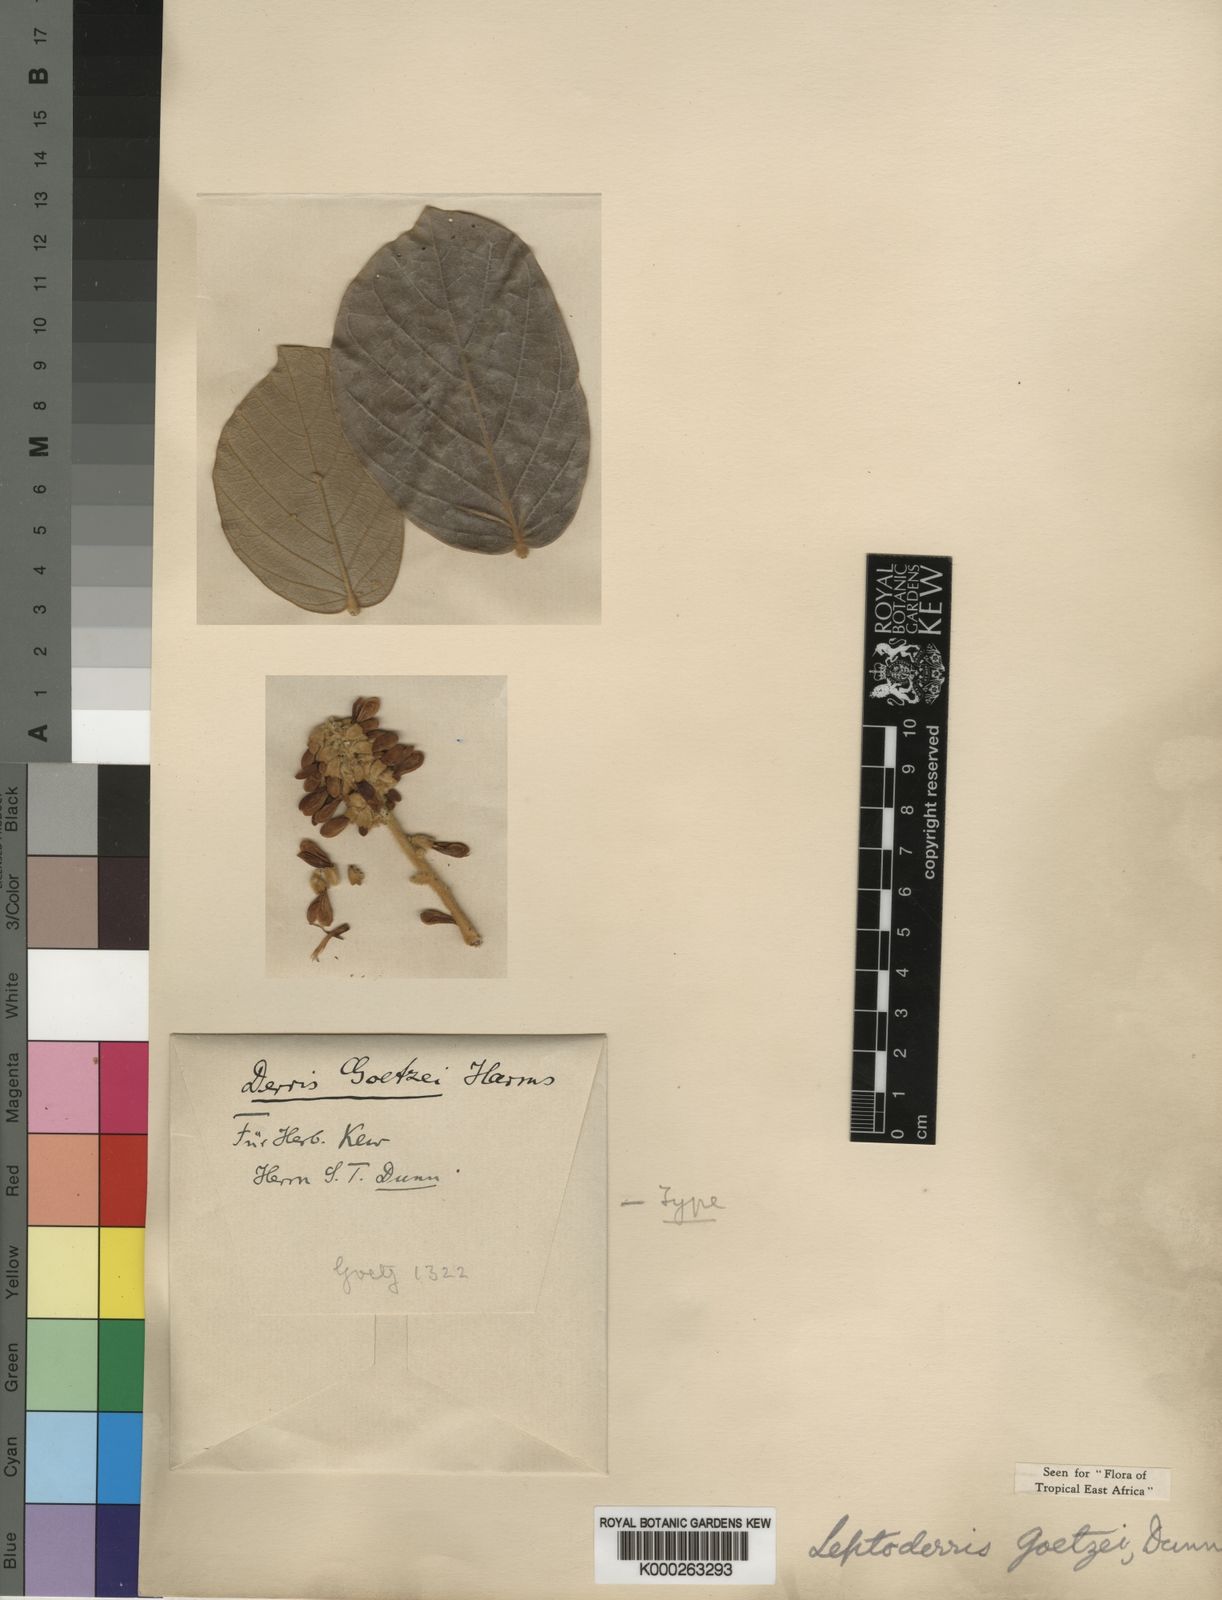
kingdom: Plantae
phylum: Tracheophyta
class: Magnoliopsida
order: Fabales
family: Fabaceae
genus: Leptoderris
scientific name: Leptoderris brachyptera
